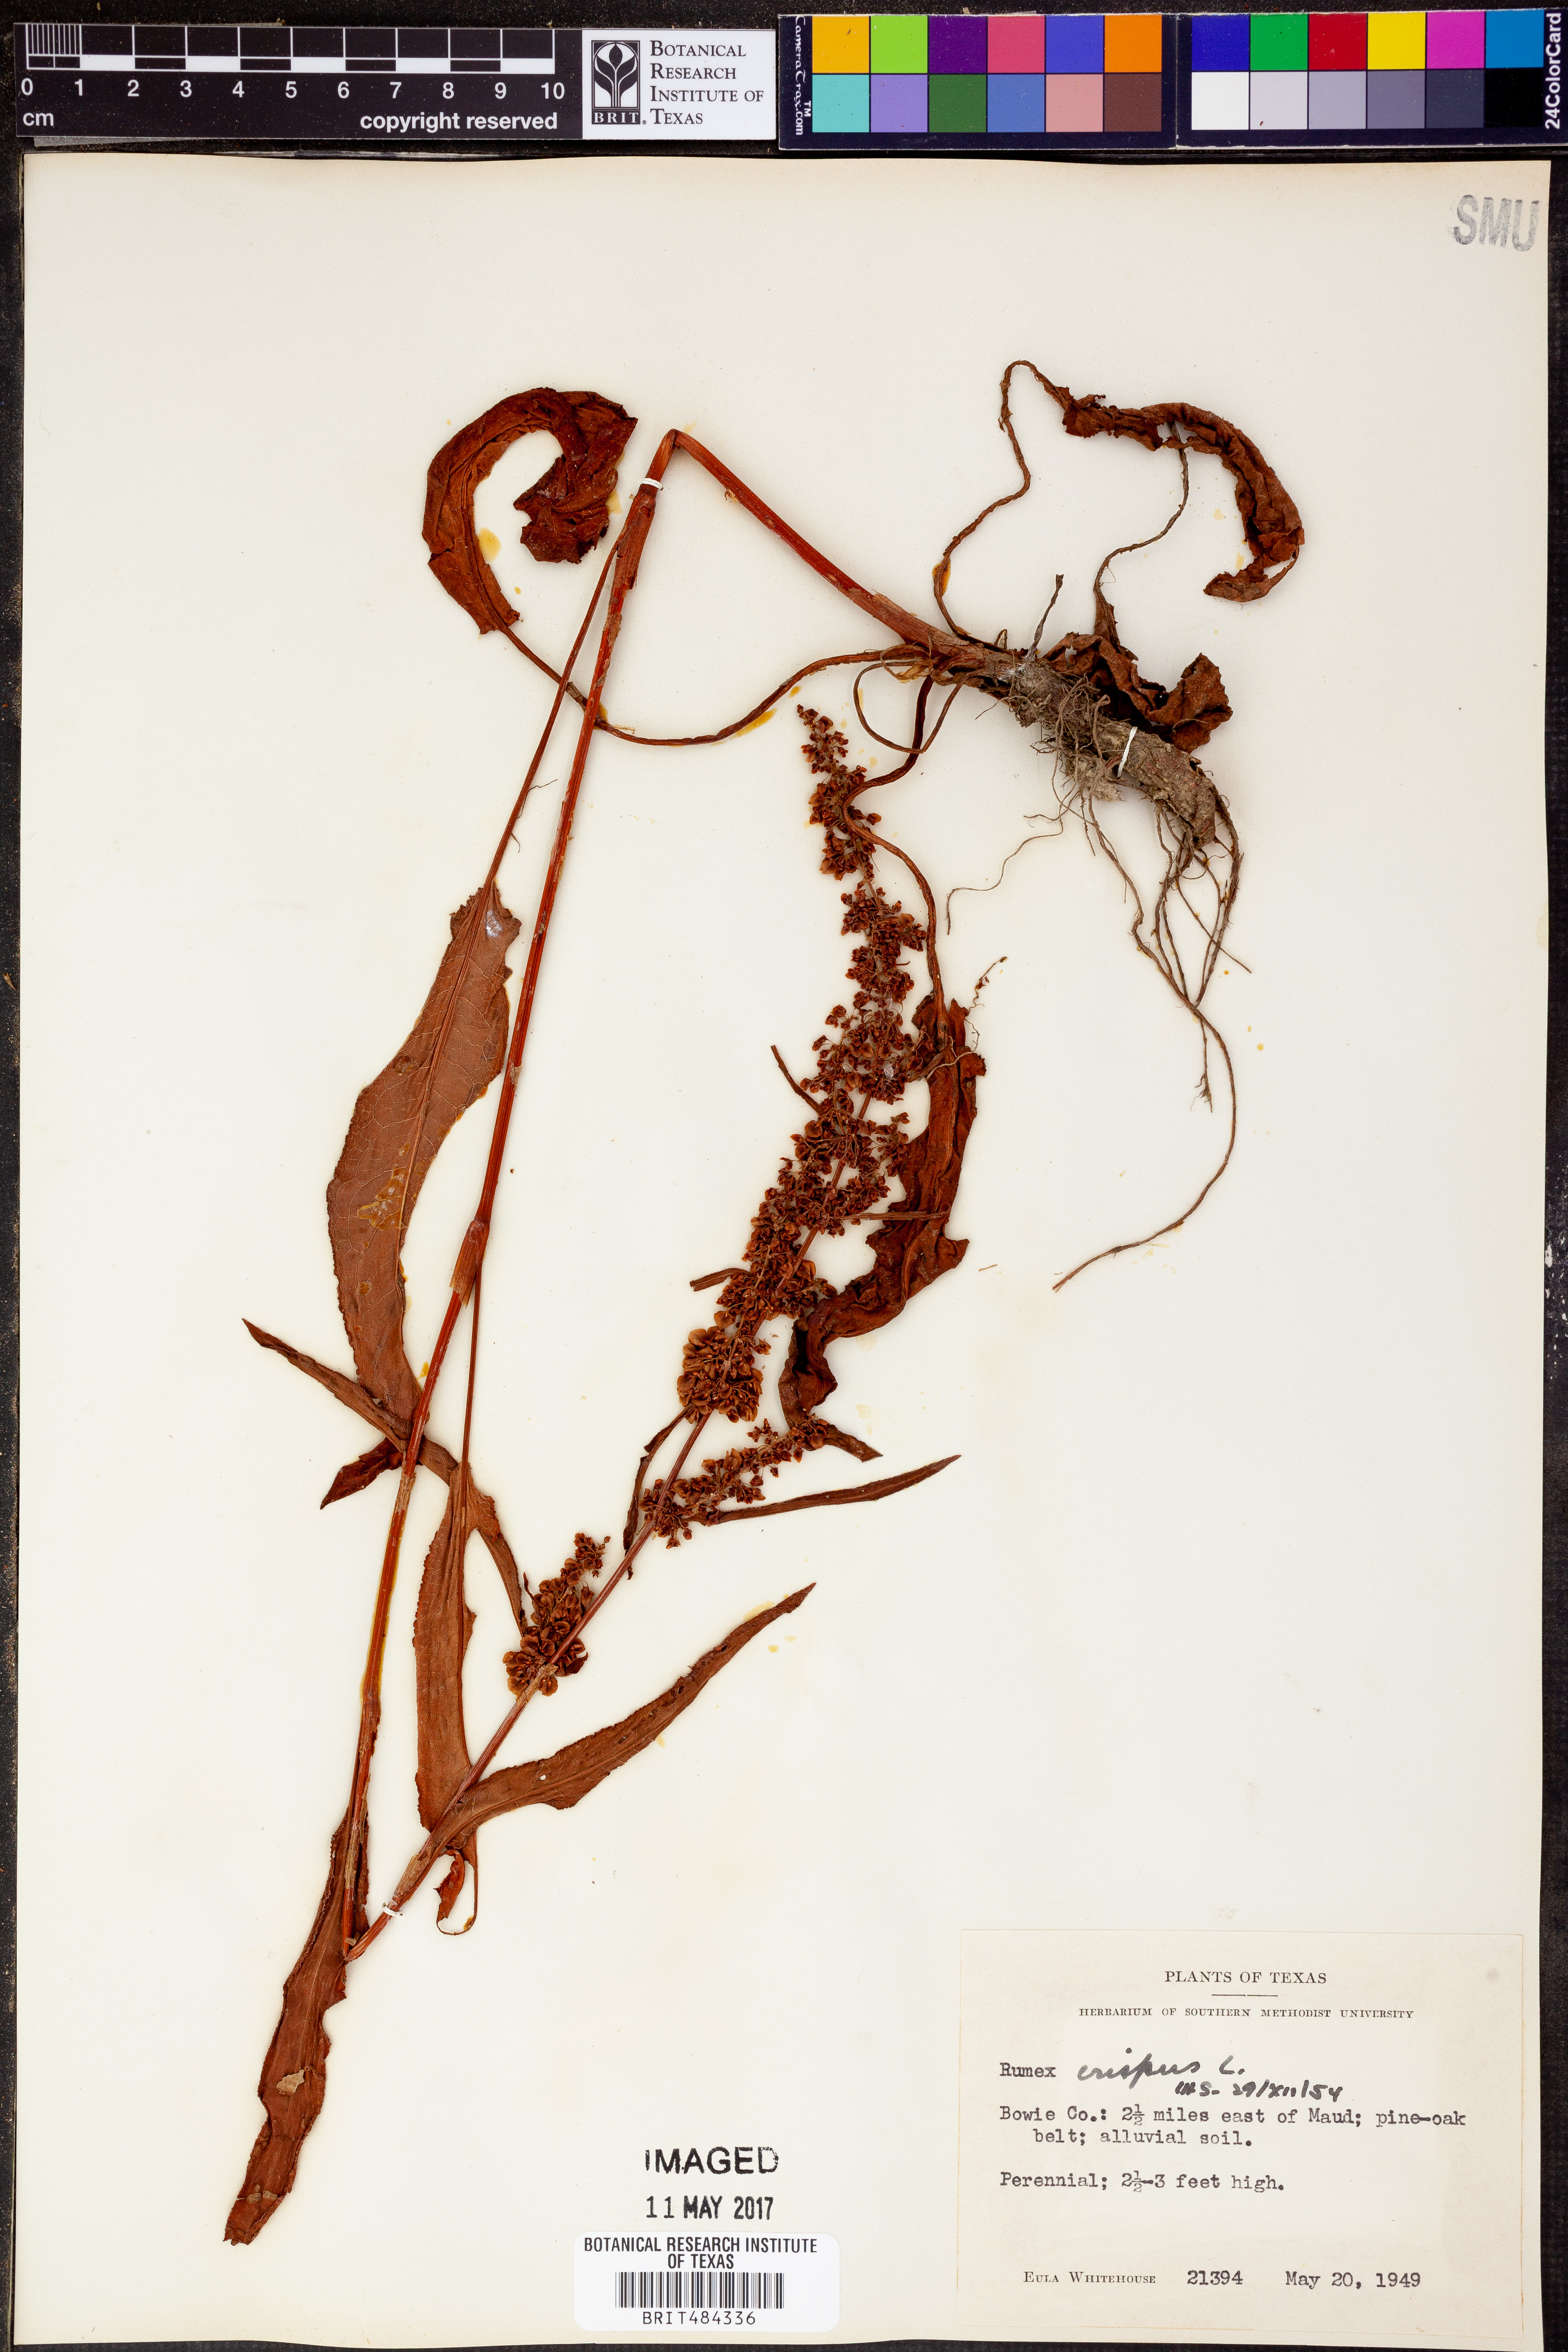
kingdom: Plantae
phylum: Tracheophyta
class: Magnoliopsida
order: Caryophyllales
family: Polygonaceae
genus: Rumex
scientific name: Rumex crispus
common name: Curled dock
